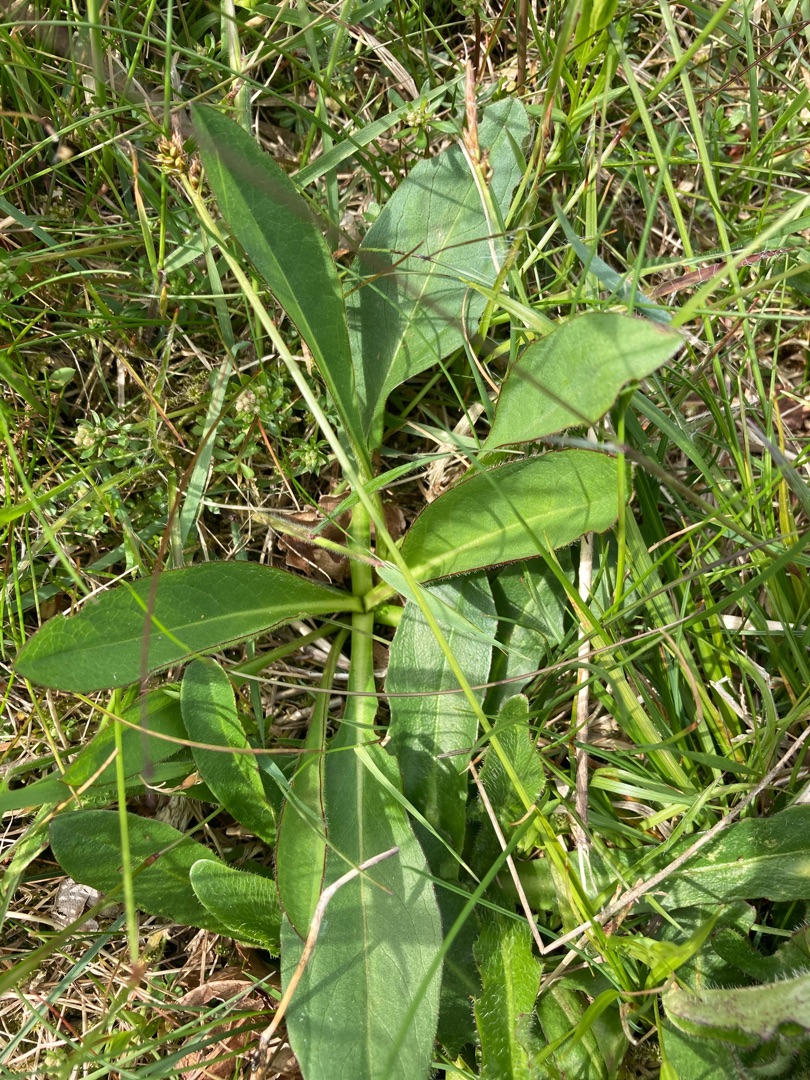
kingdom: Plantae
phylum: Tracheophyta
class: Magnoliopsida
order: Dipsacales
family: Caprifoliaceae
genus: Succisa
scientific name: Succisa pratensis
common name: Djævelsbid
